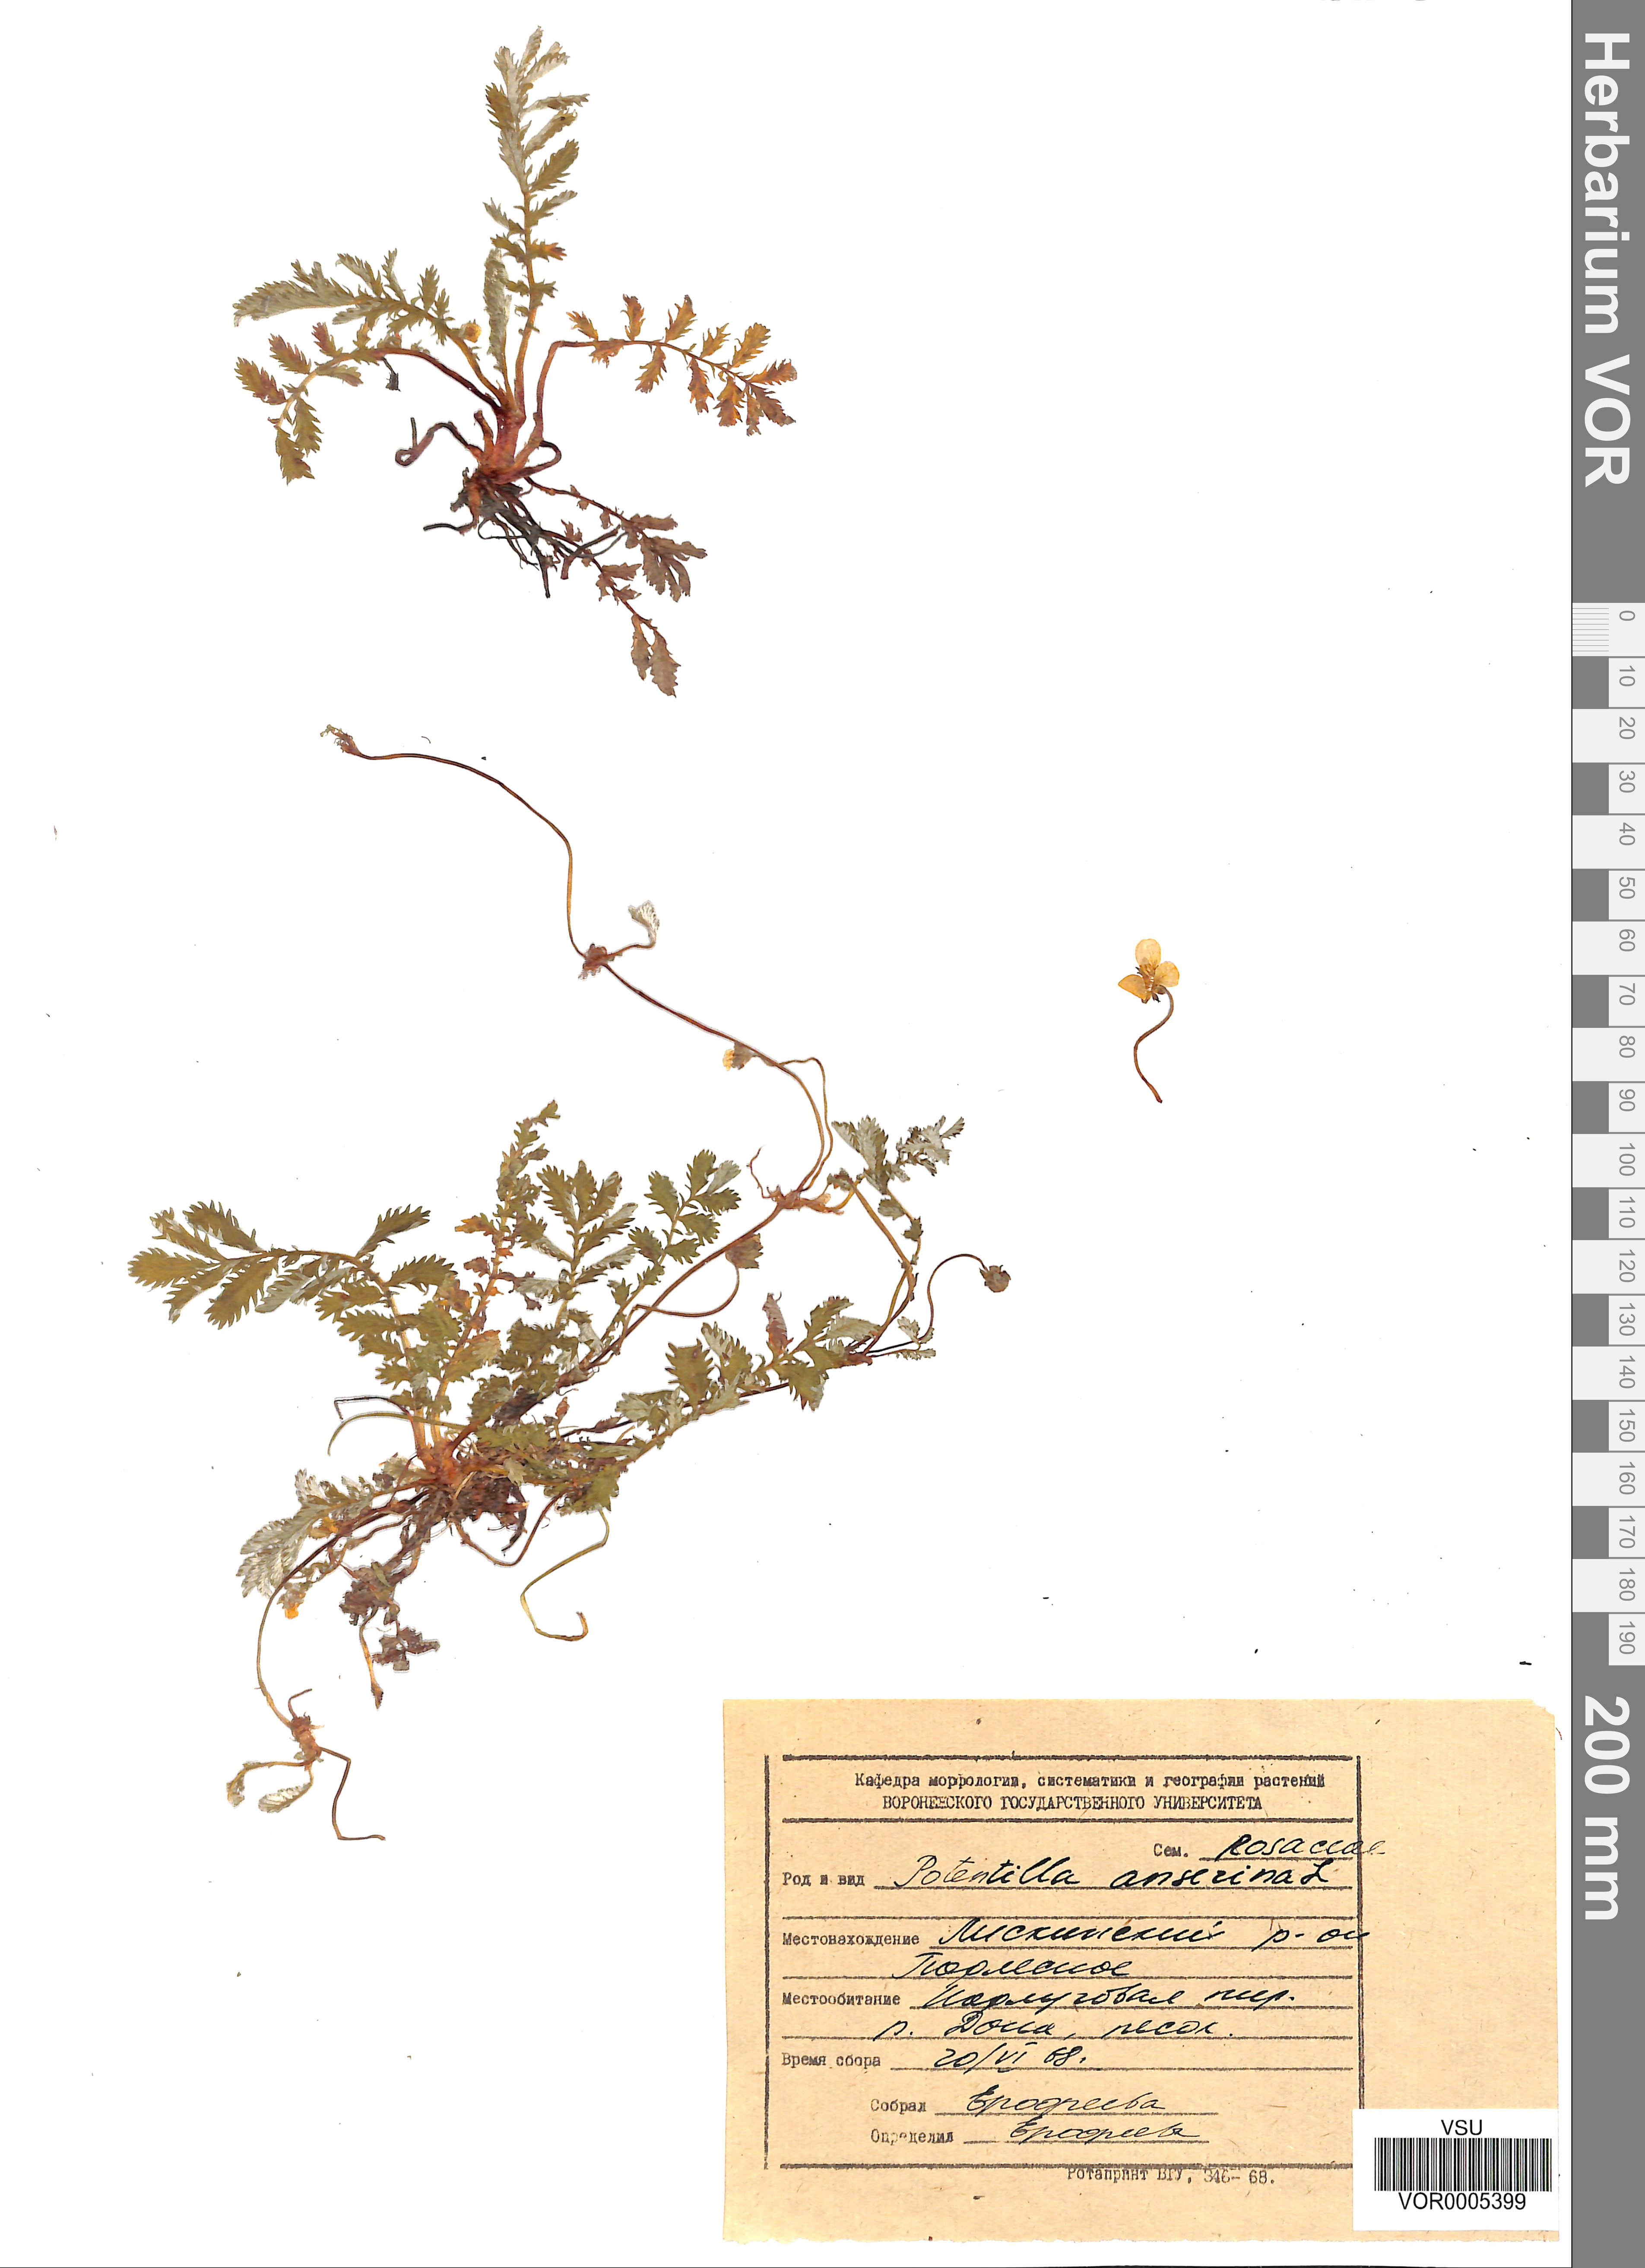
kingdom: Plantae
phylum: Tracheophyta
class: Magnoliopsida
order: Rosales
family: Rosaceae
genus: Argentina
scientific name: Argentina anserina
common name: Common silverweed
